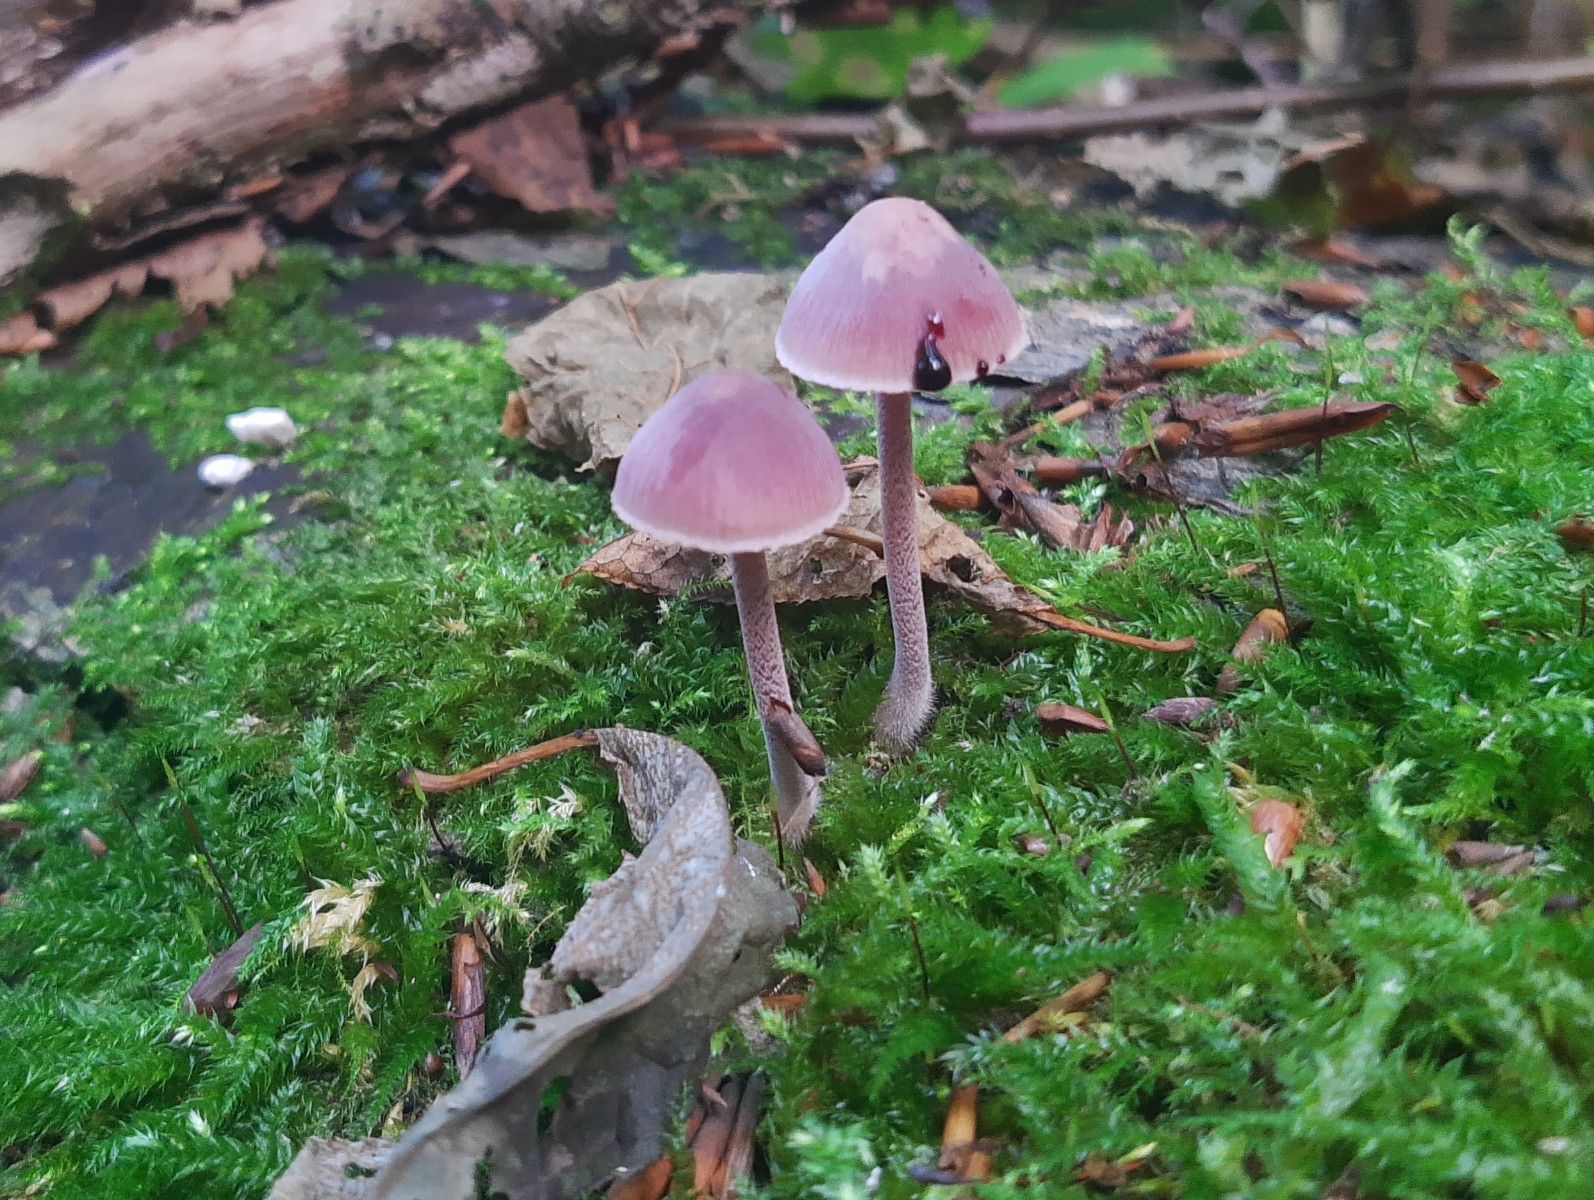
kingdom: Fungi
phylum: Basidiomycota
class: Agaricomycetes
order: Agaricales
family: Mycenaceae
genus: Mycena
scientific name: Mycena haematopus
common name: blødende huesvamp
